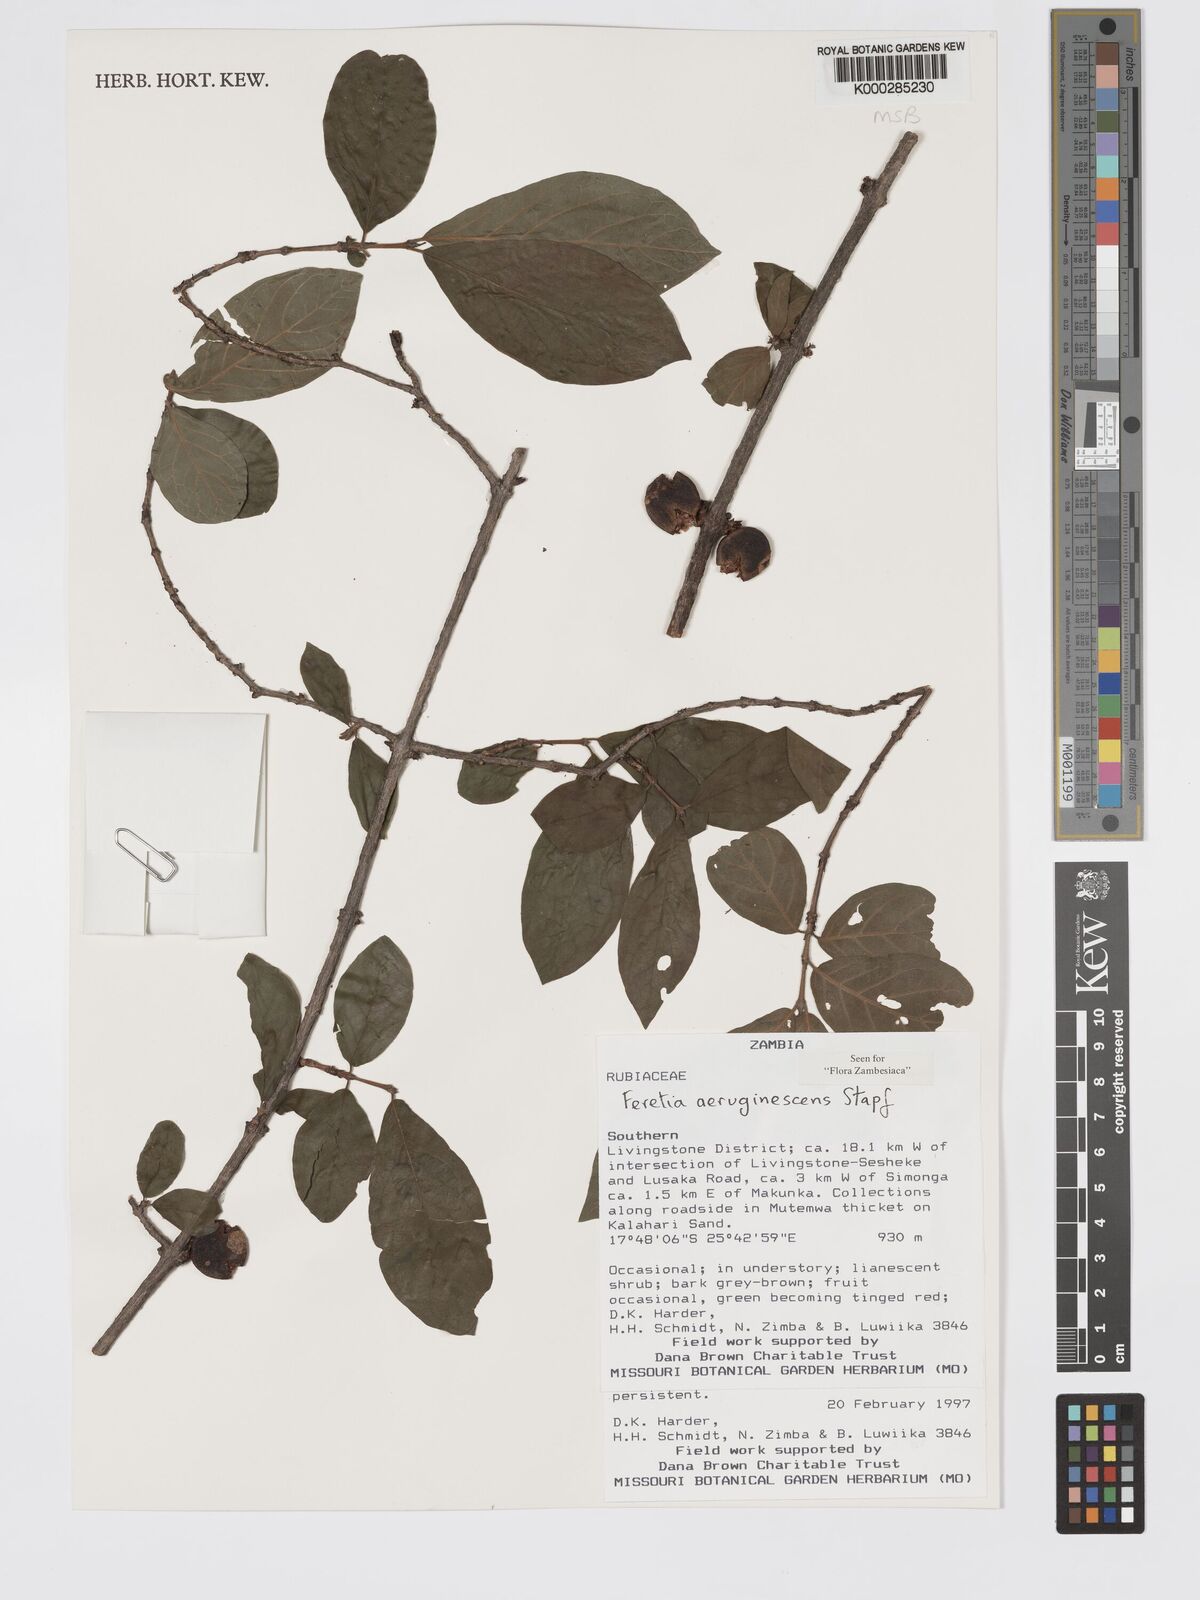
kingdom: Plantae
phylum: Tracheophyta
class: Magnoliopsida
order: Gentianales
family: Rubiaceae
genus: Feretia
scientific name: Feretia aeruginescens
